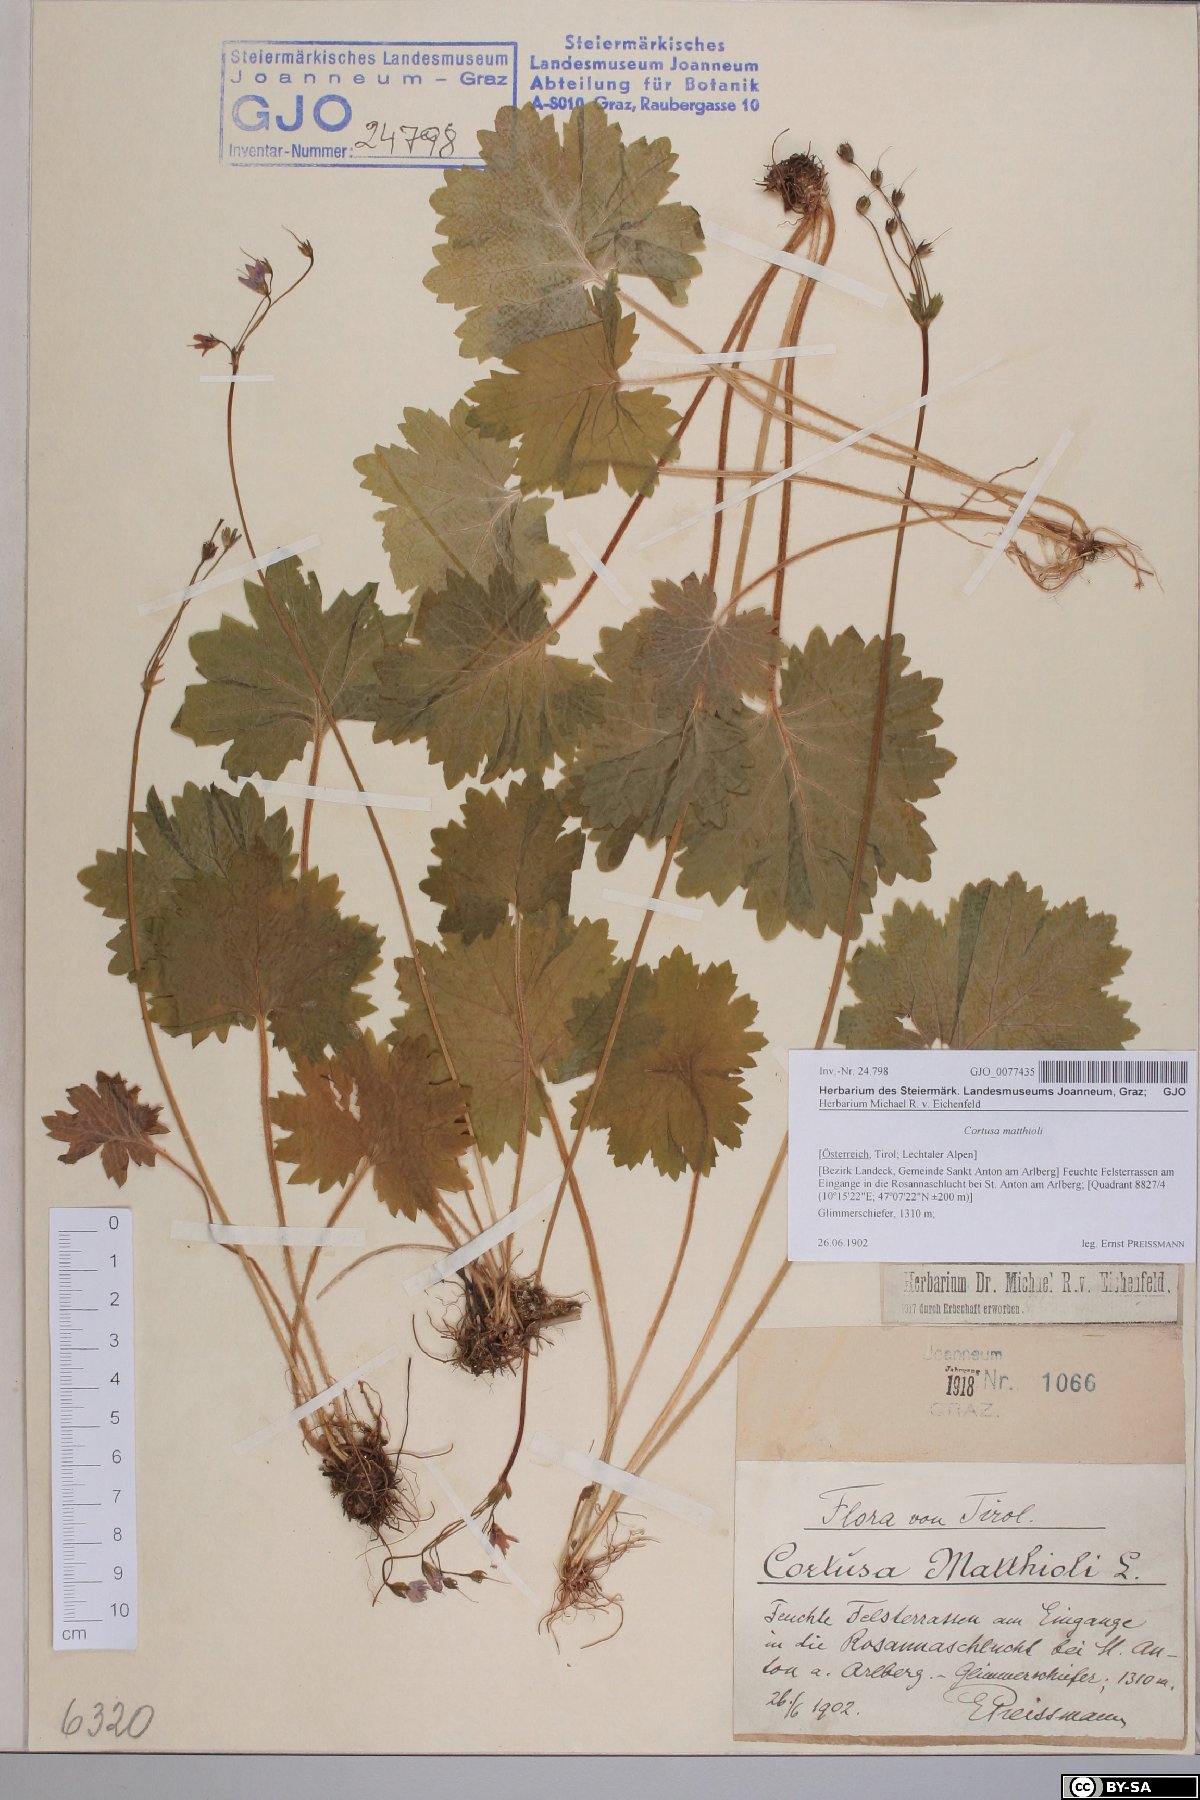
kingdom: Plantae
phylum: Tracheophyta
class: Magnoliopsida
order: Ericales
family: Primulaceae
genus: Primula
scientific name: Primula matthioli
